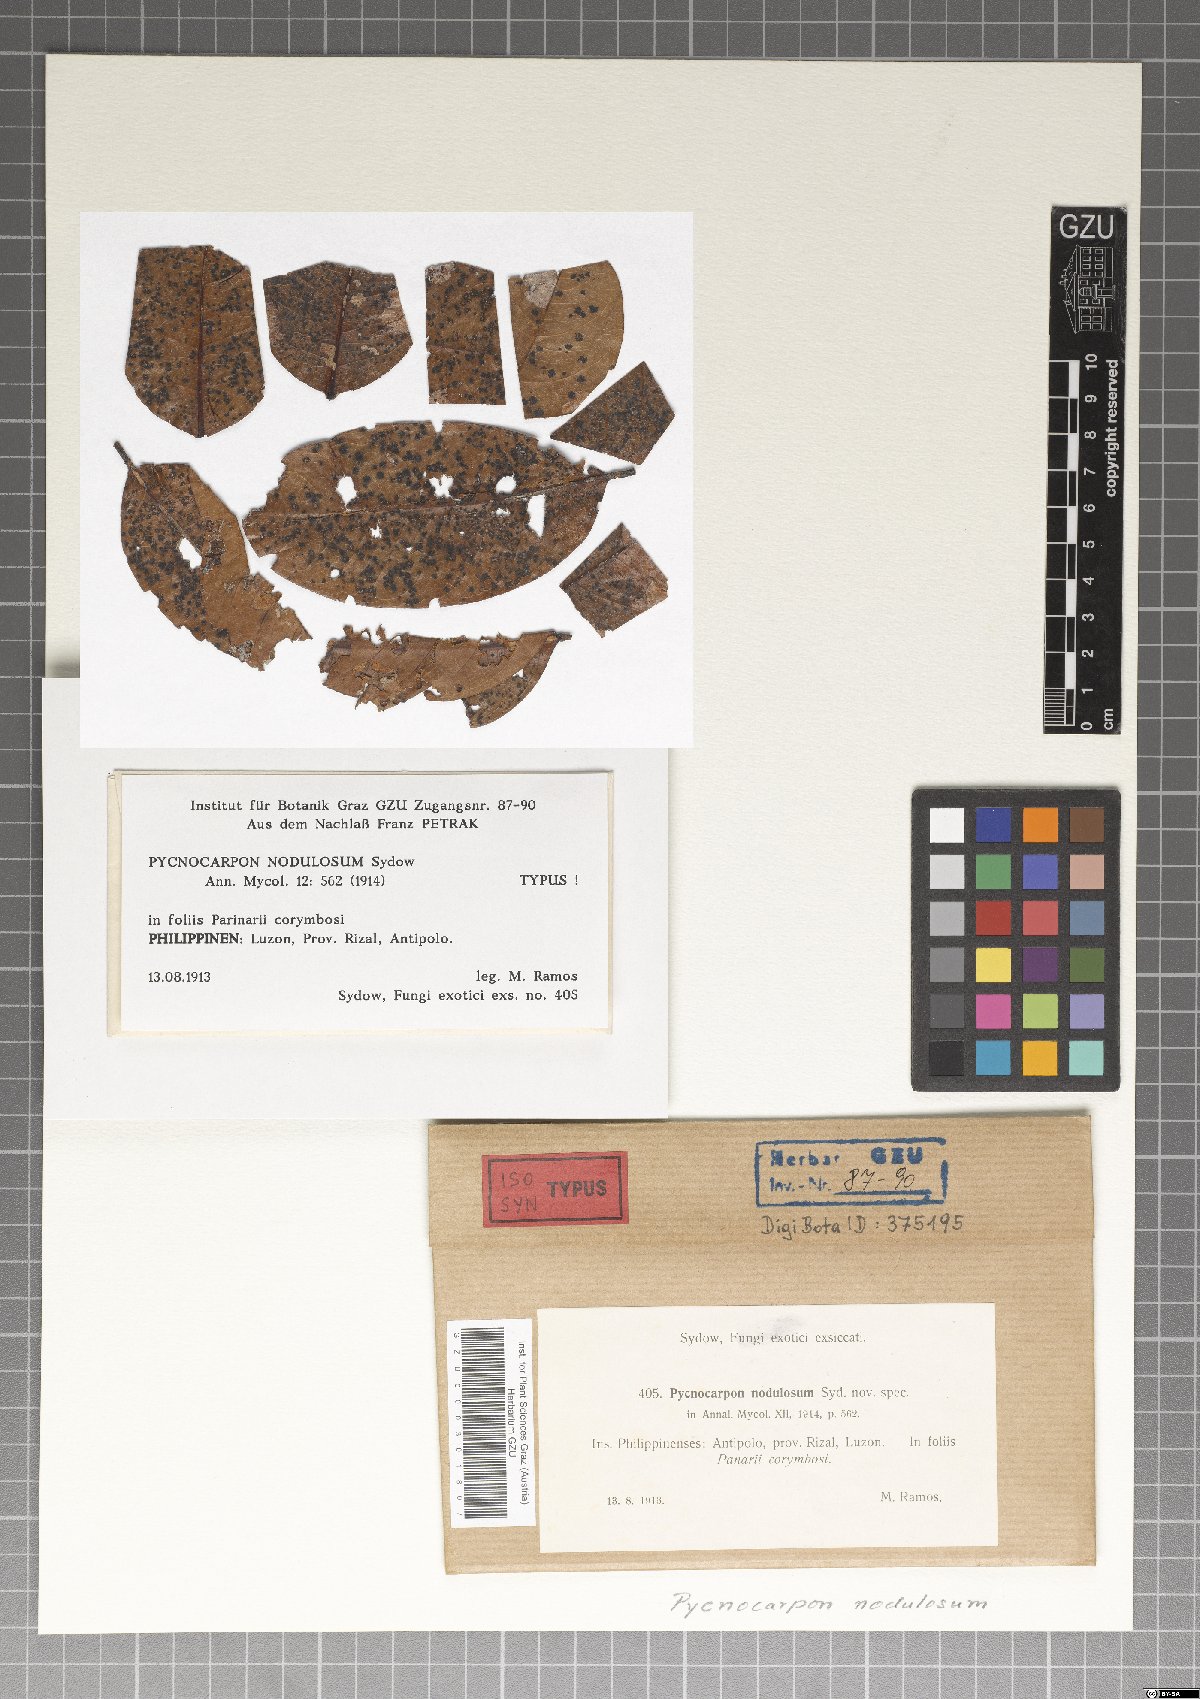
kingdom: Fungi
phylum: Ascomycota
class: Dothideomycetes
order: Asterinales
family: Asterinaceae
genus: Pycnocarpon
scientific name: Pycnocarpon nodulosum
